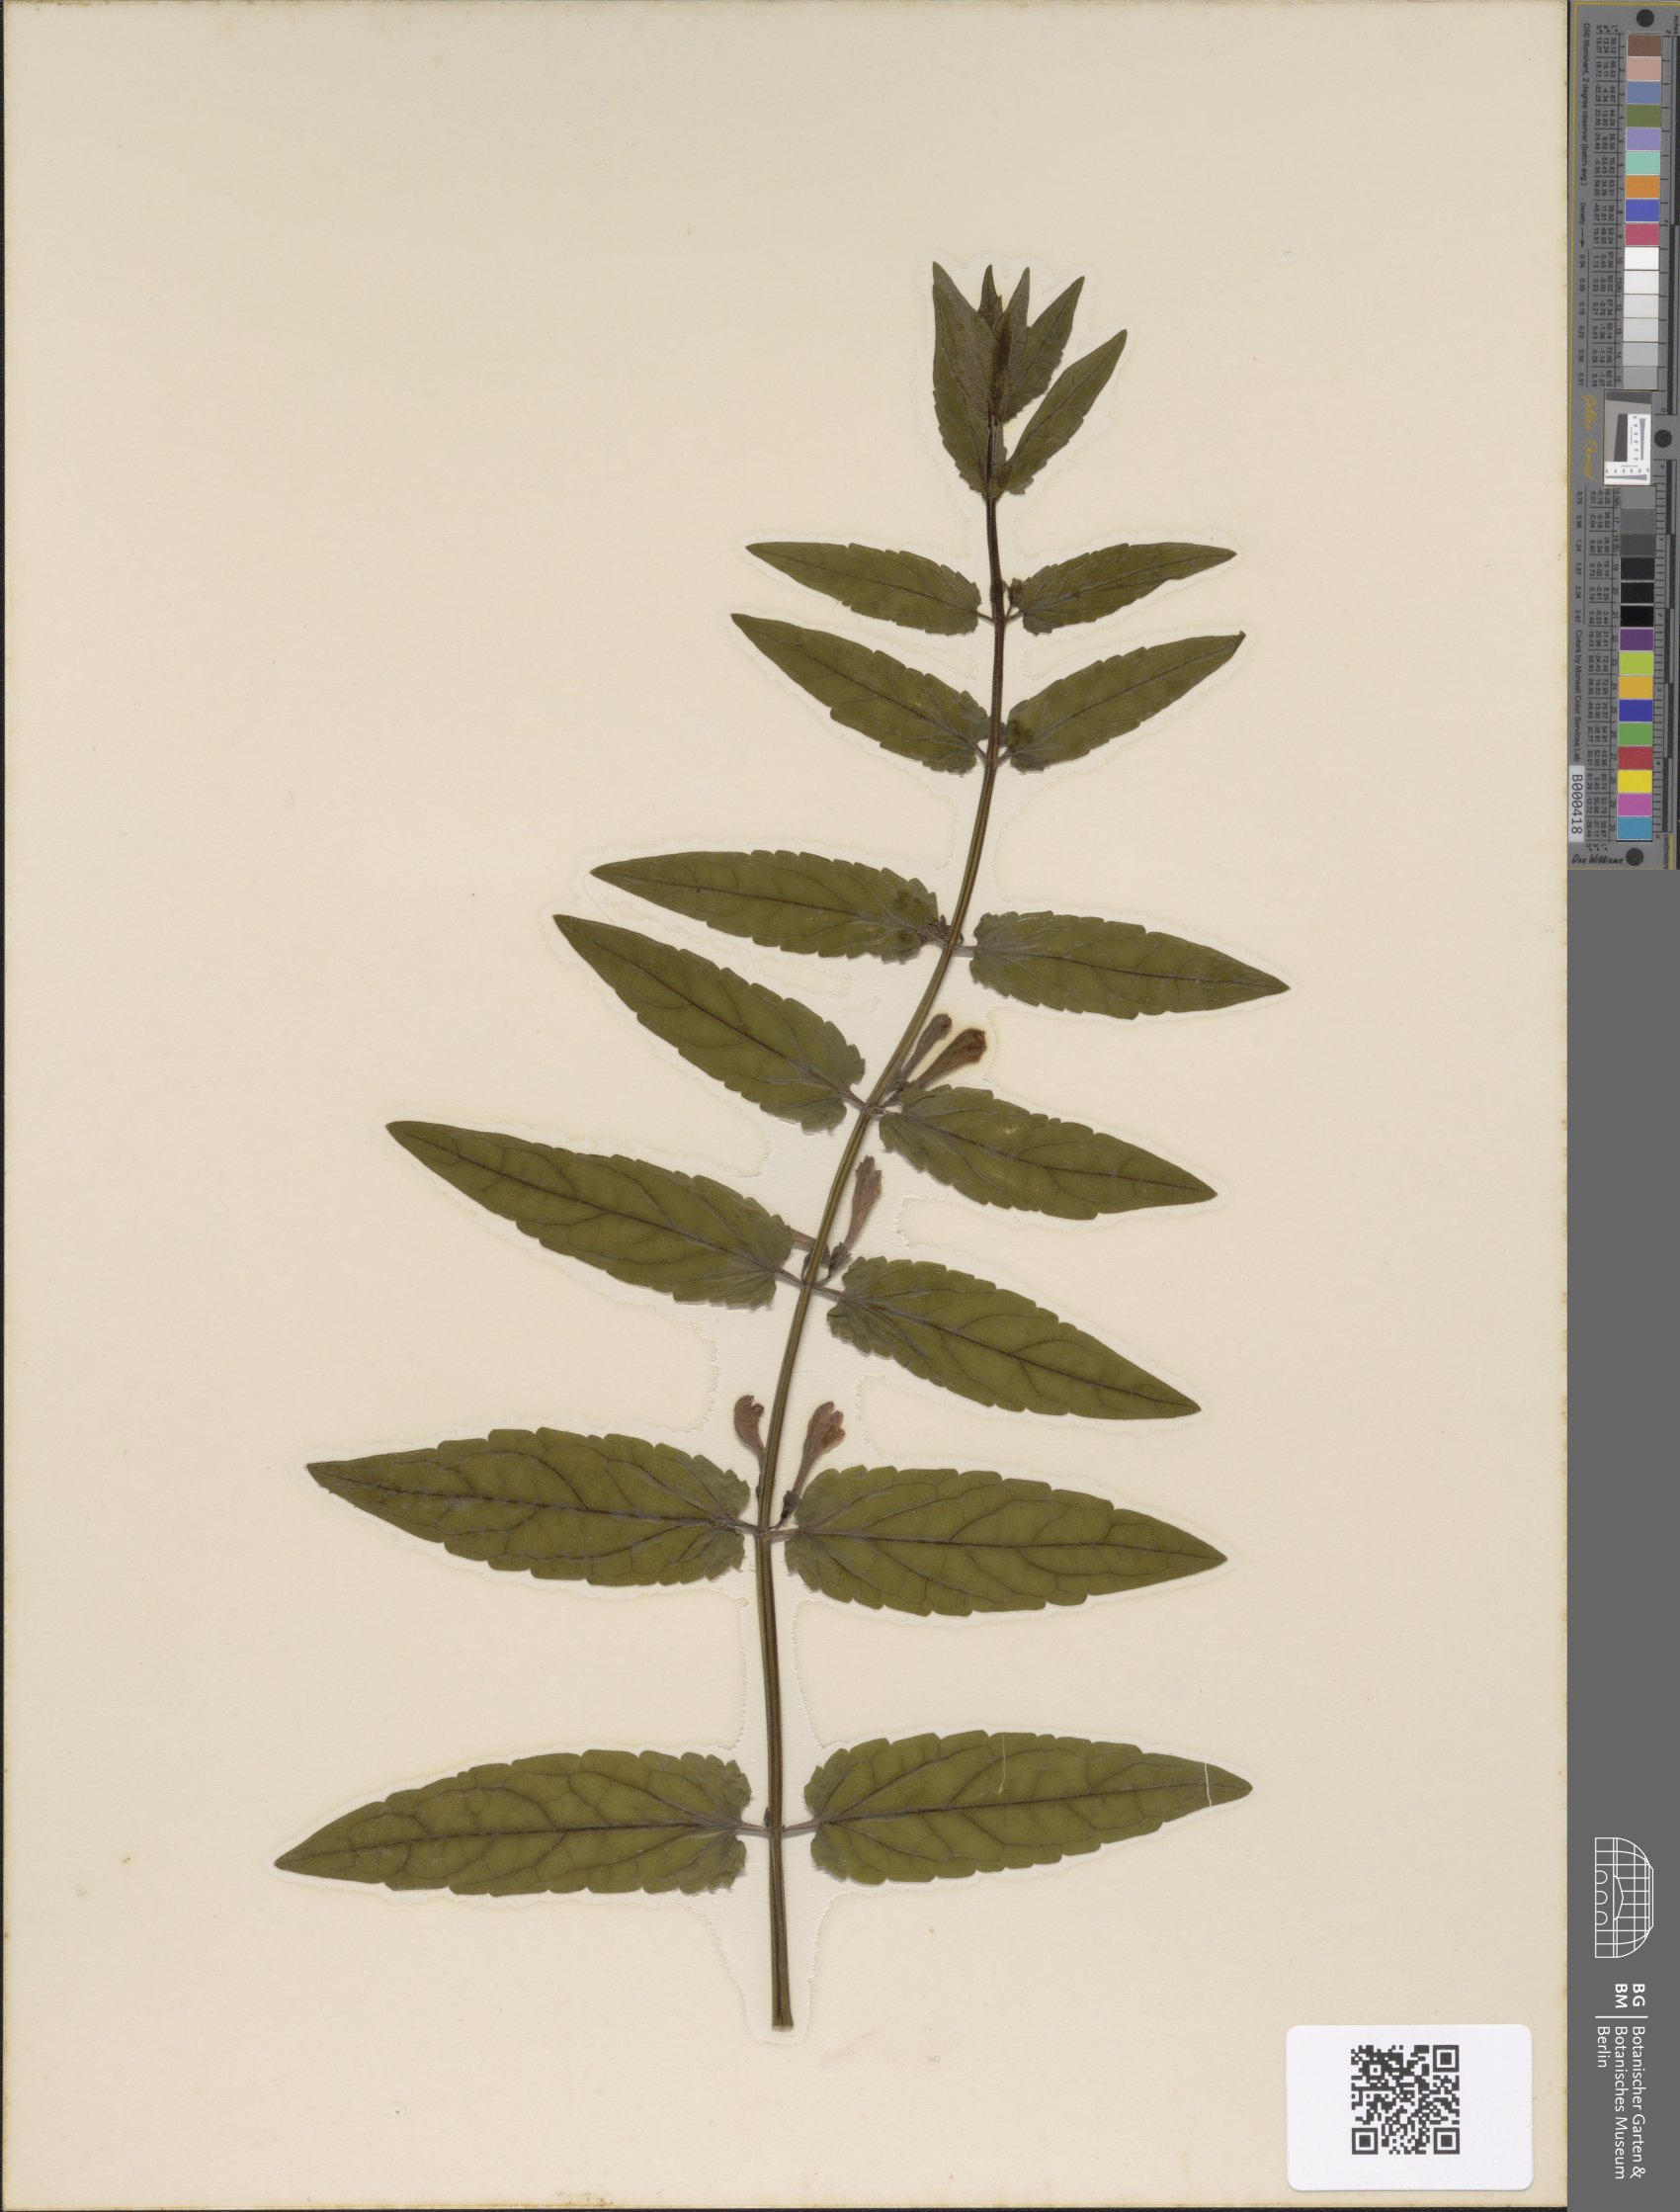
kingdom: Plantae
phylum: Tracheophyta
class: Magnoliopsida
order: Lamiales
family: Lamiaceae
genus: Scutellaria
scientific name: Scutellaria galericulata
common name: Skullcap
